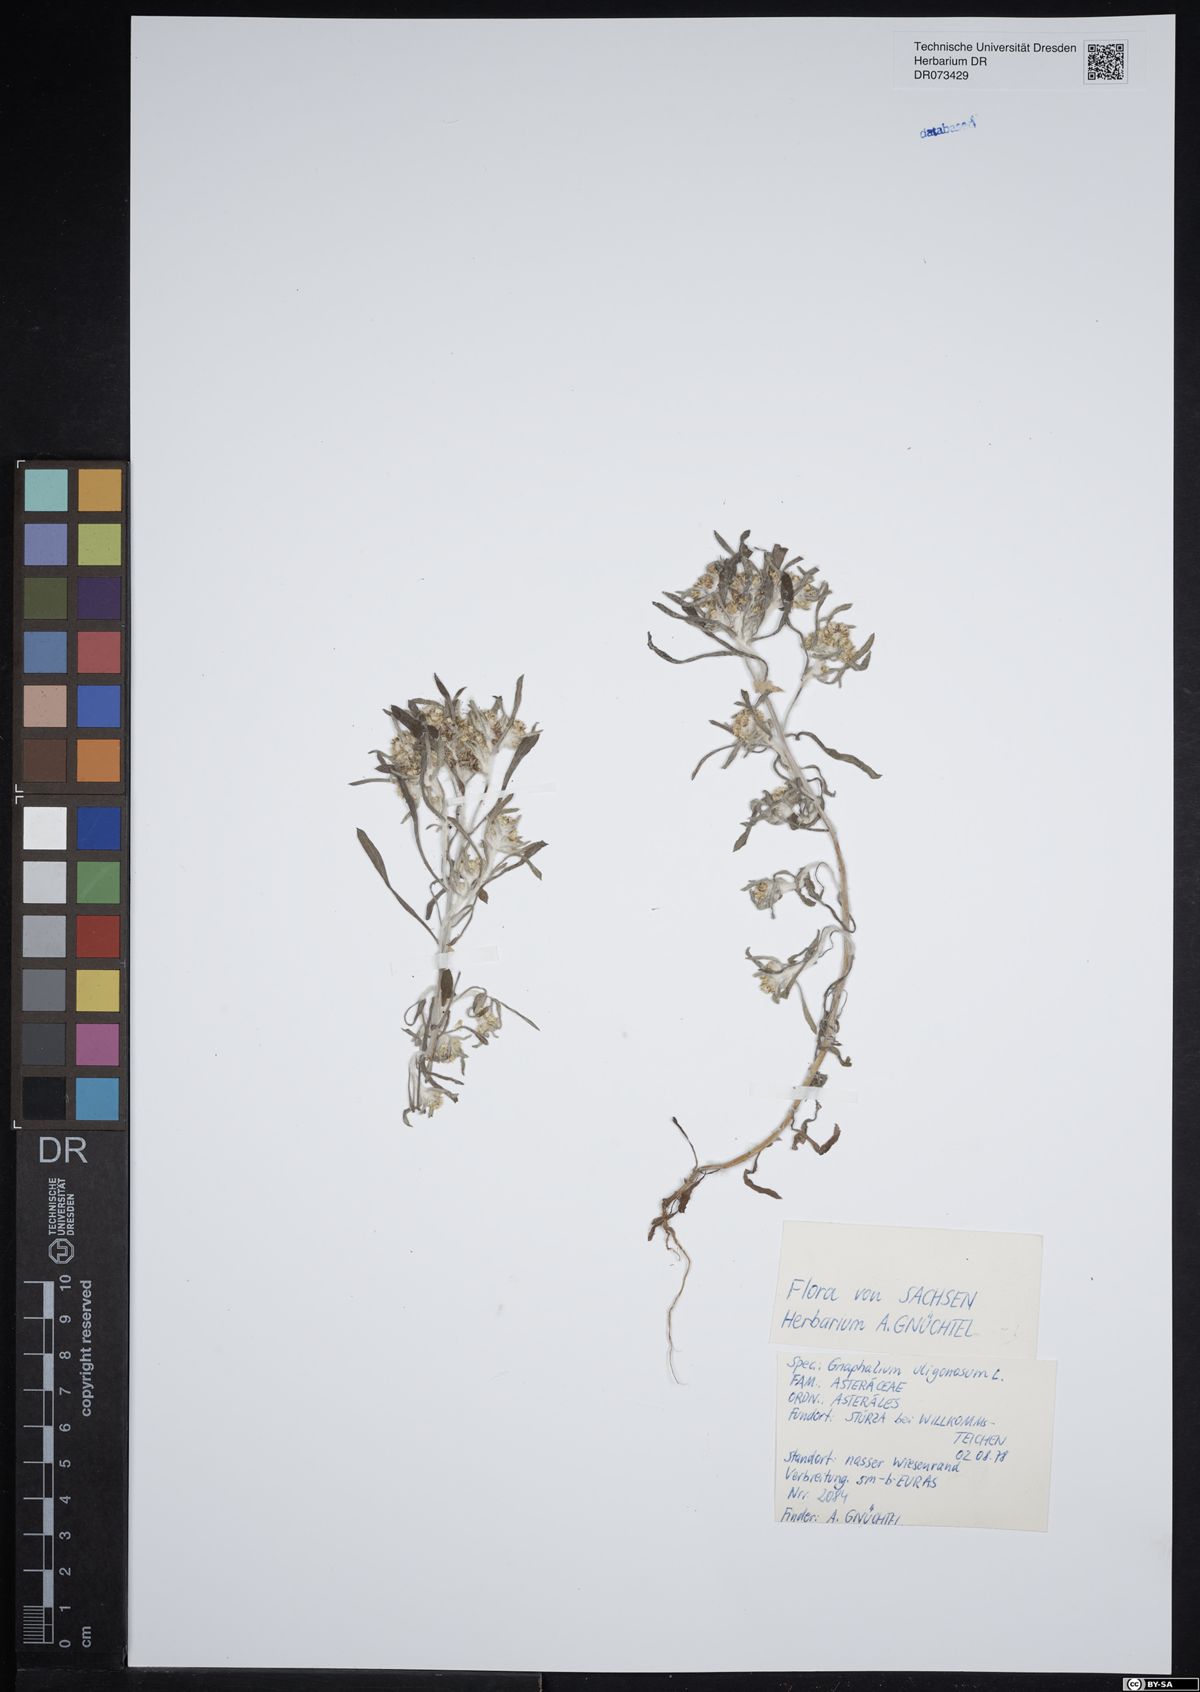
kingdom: Plantae
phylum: Tracheophyta
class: Magnoliopsida
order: Asterales
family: Asteraceae
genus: Gnaphalium
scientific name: Gnaphalium uliginosum
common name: Marsh cudweed
